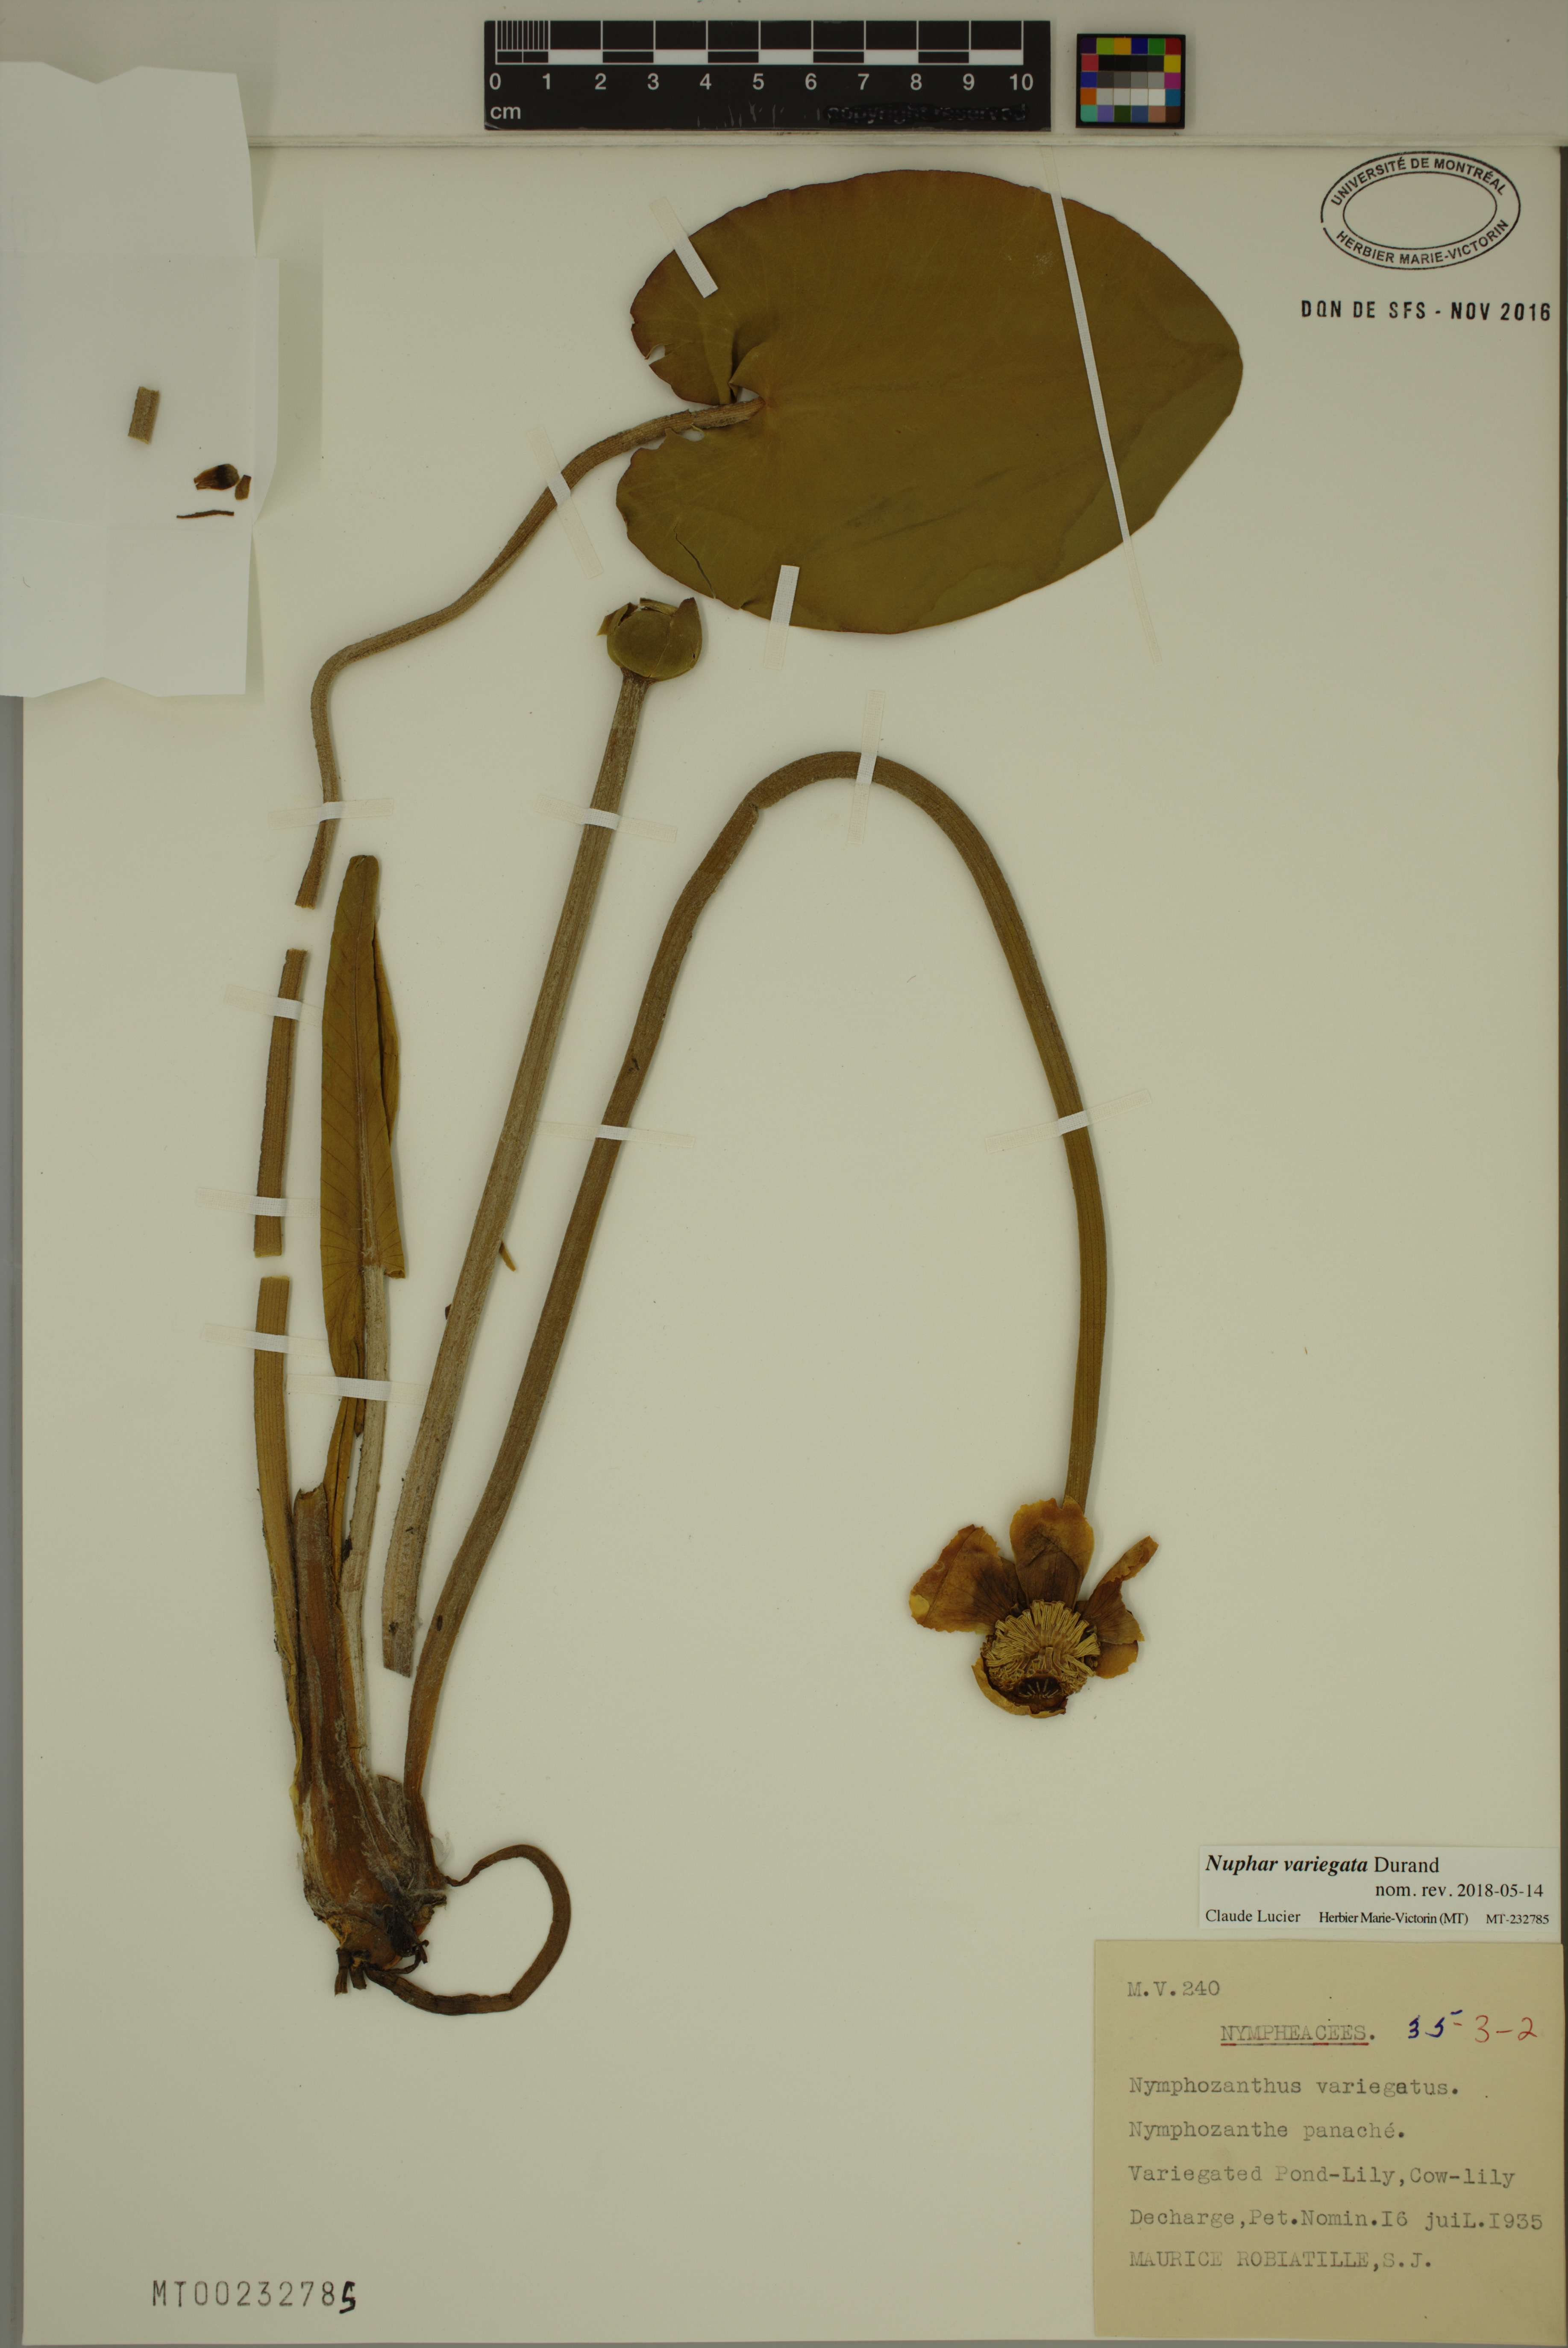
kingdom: Plantae
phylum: Tracheophyta
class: Magnoliopsida
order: Nymphaeales
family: Nymphaeaceae
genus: Nuphar
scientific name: Nuphar variegata
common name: Beaver-root
